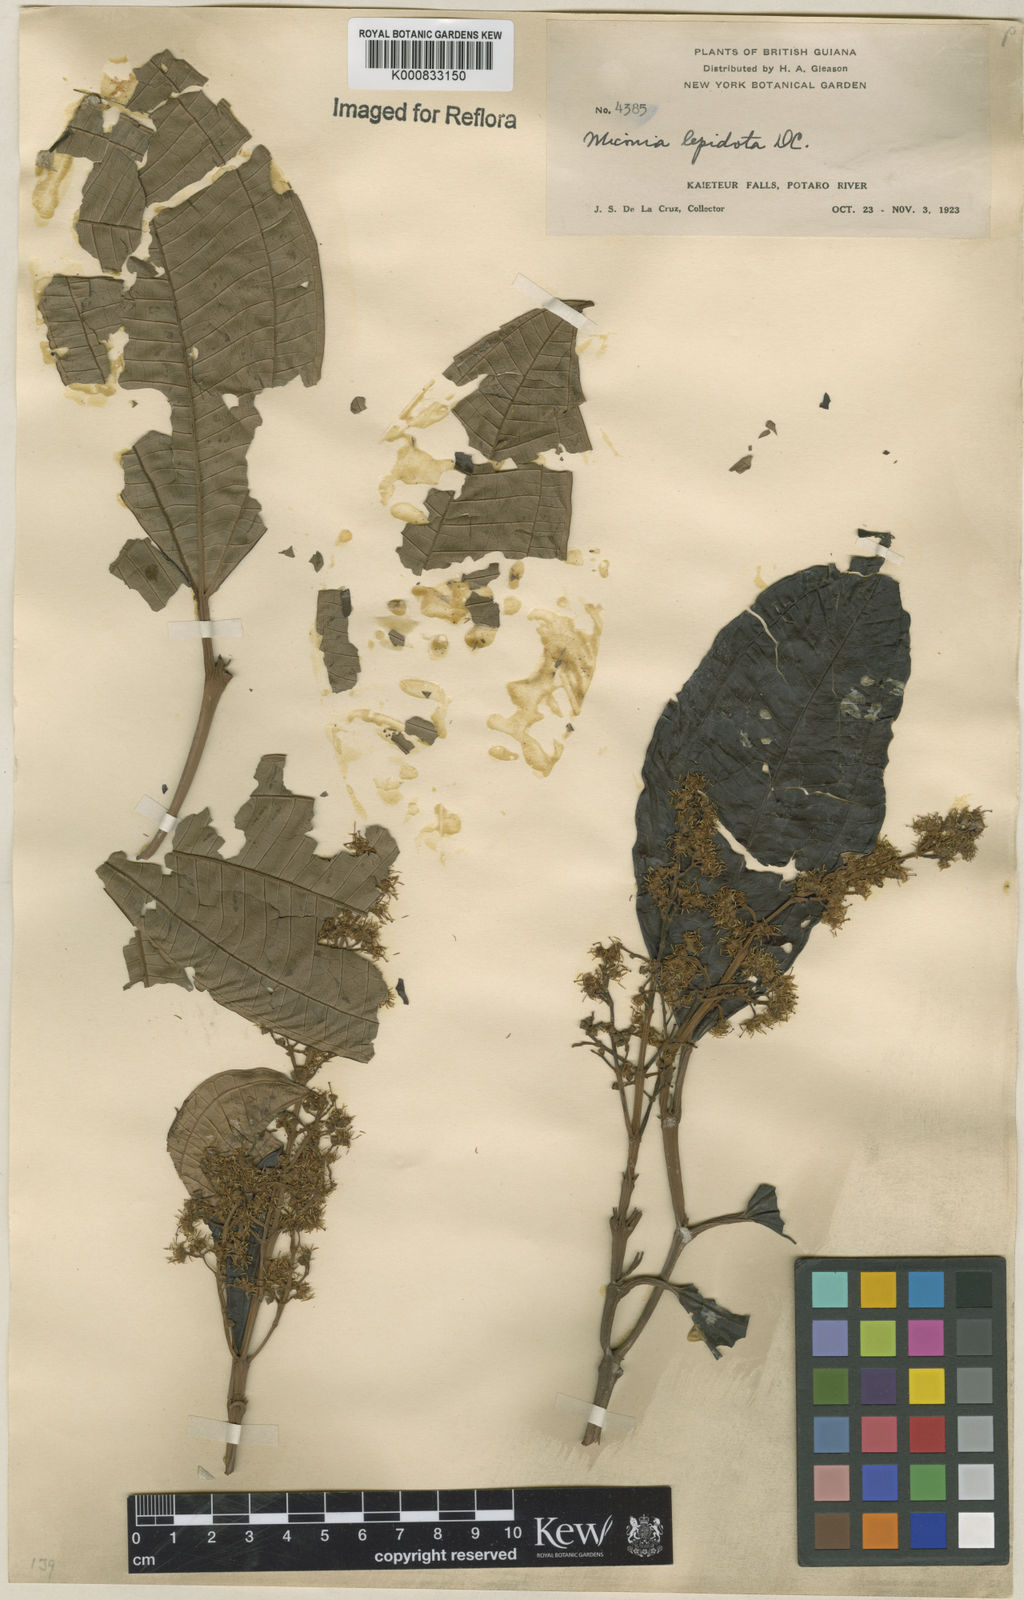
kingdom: Plantae
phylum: Tracheophyta
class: Magnoliopsida
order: Myrtales
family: Melastomataceae
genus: Miconia
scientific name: Miconia lepidota
